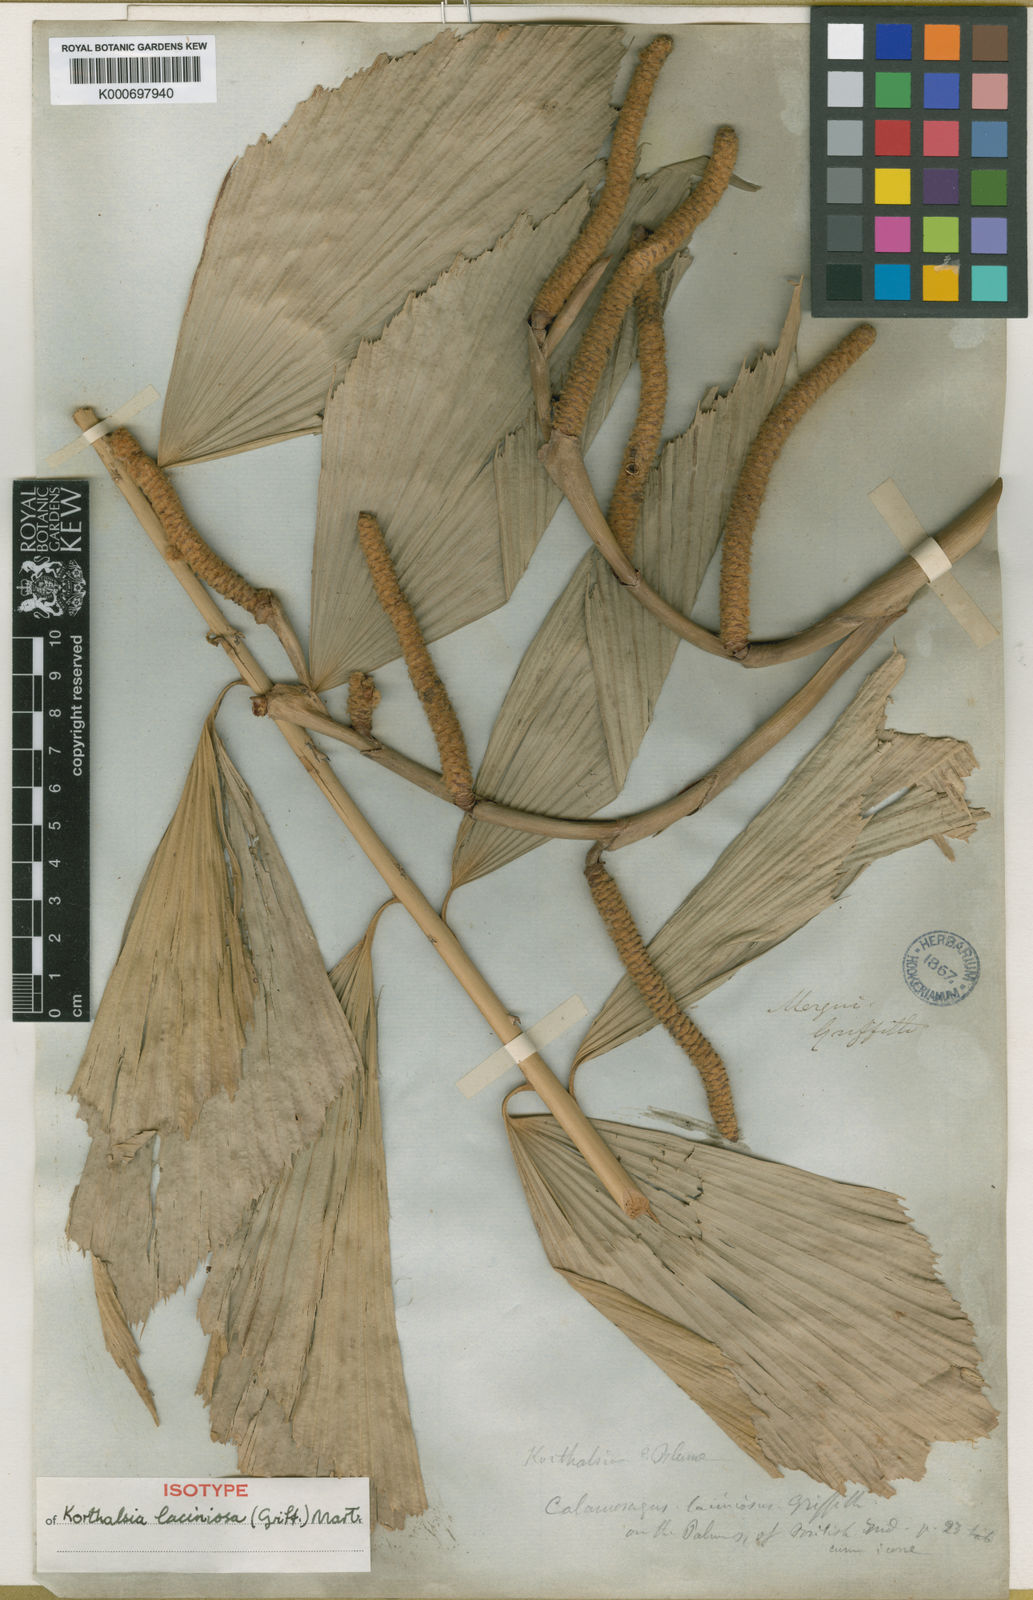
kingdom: Plantae
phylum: Tracheophyta
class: Liliopsida
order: Arecales
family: Arecaceae
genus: Korthalsia
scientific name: Korthalsia laciniosa
